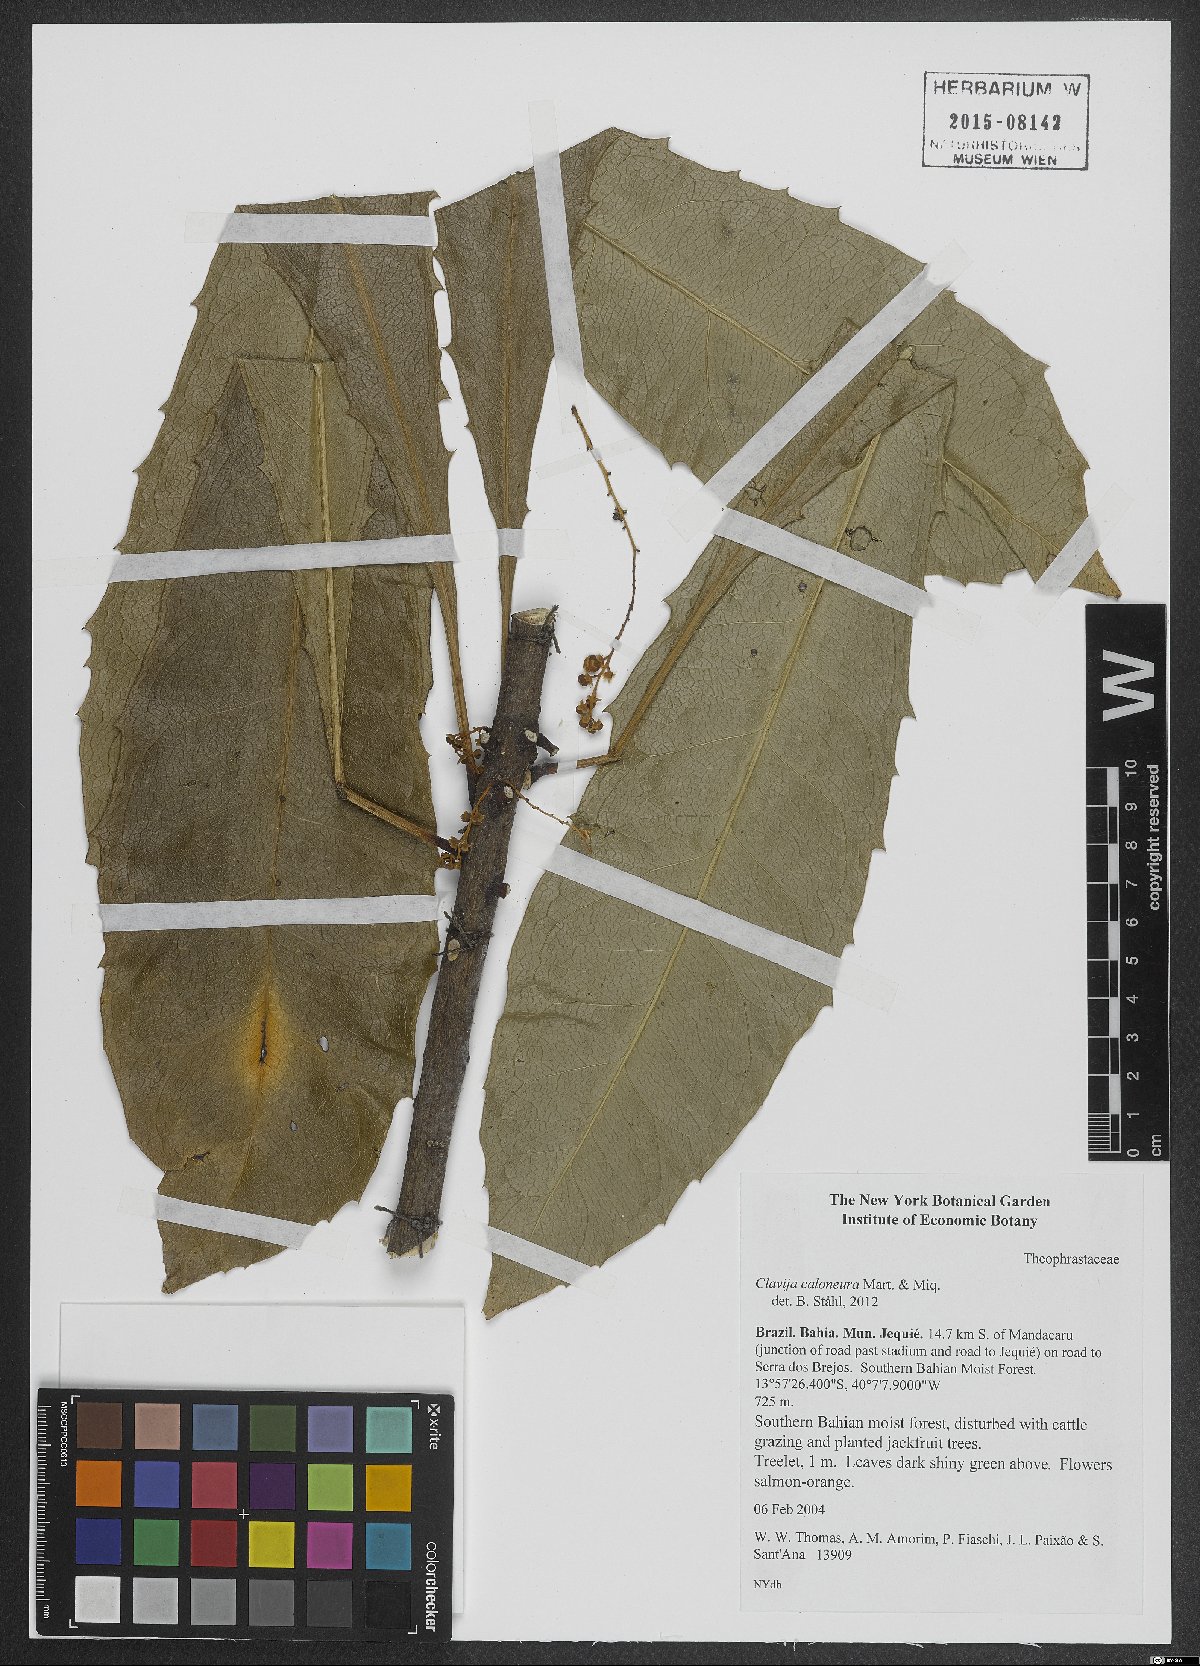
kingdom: Plantae
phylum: Tracheophyta
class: Magnoliopsida
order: Ericales
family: Primulaceae
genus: Clavija
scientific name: Clavija caloneura
